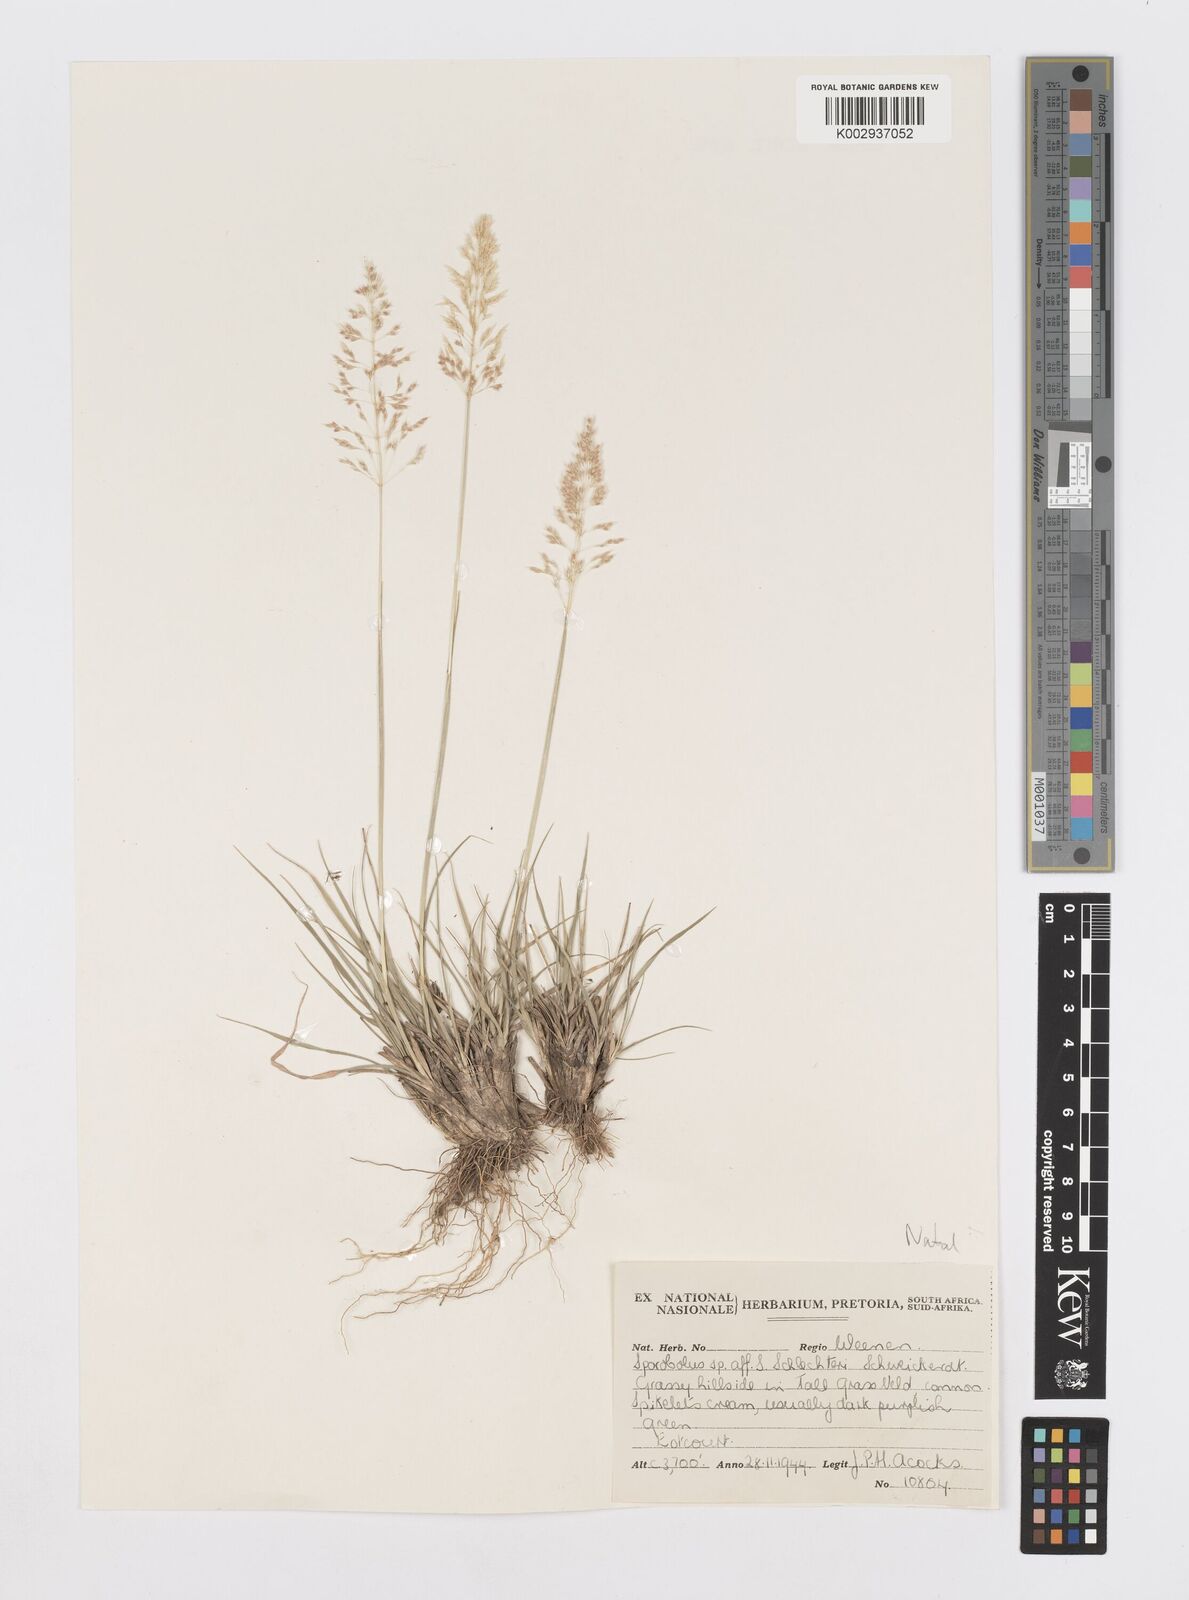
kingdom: Plantae
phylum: Tracheophyta
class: Liliopsida
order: Poales
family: Poaceae
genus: Sporobolus
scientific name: Sporobolus
